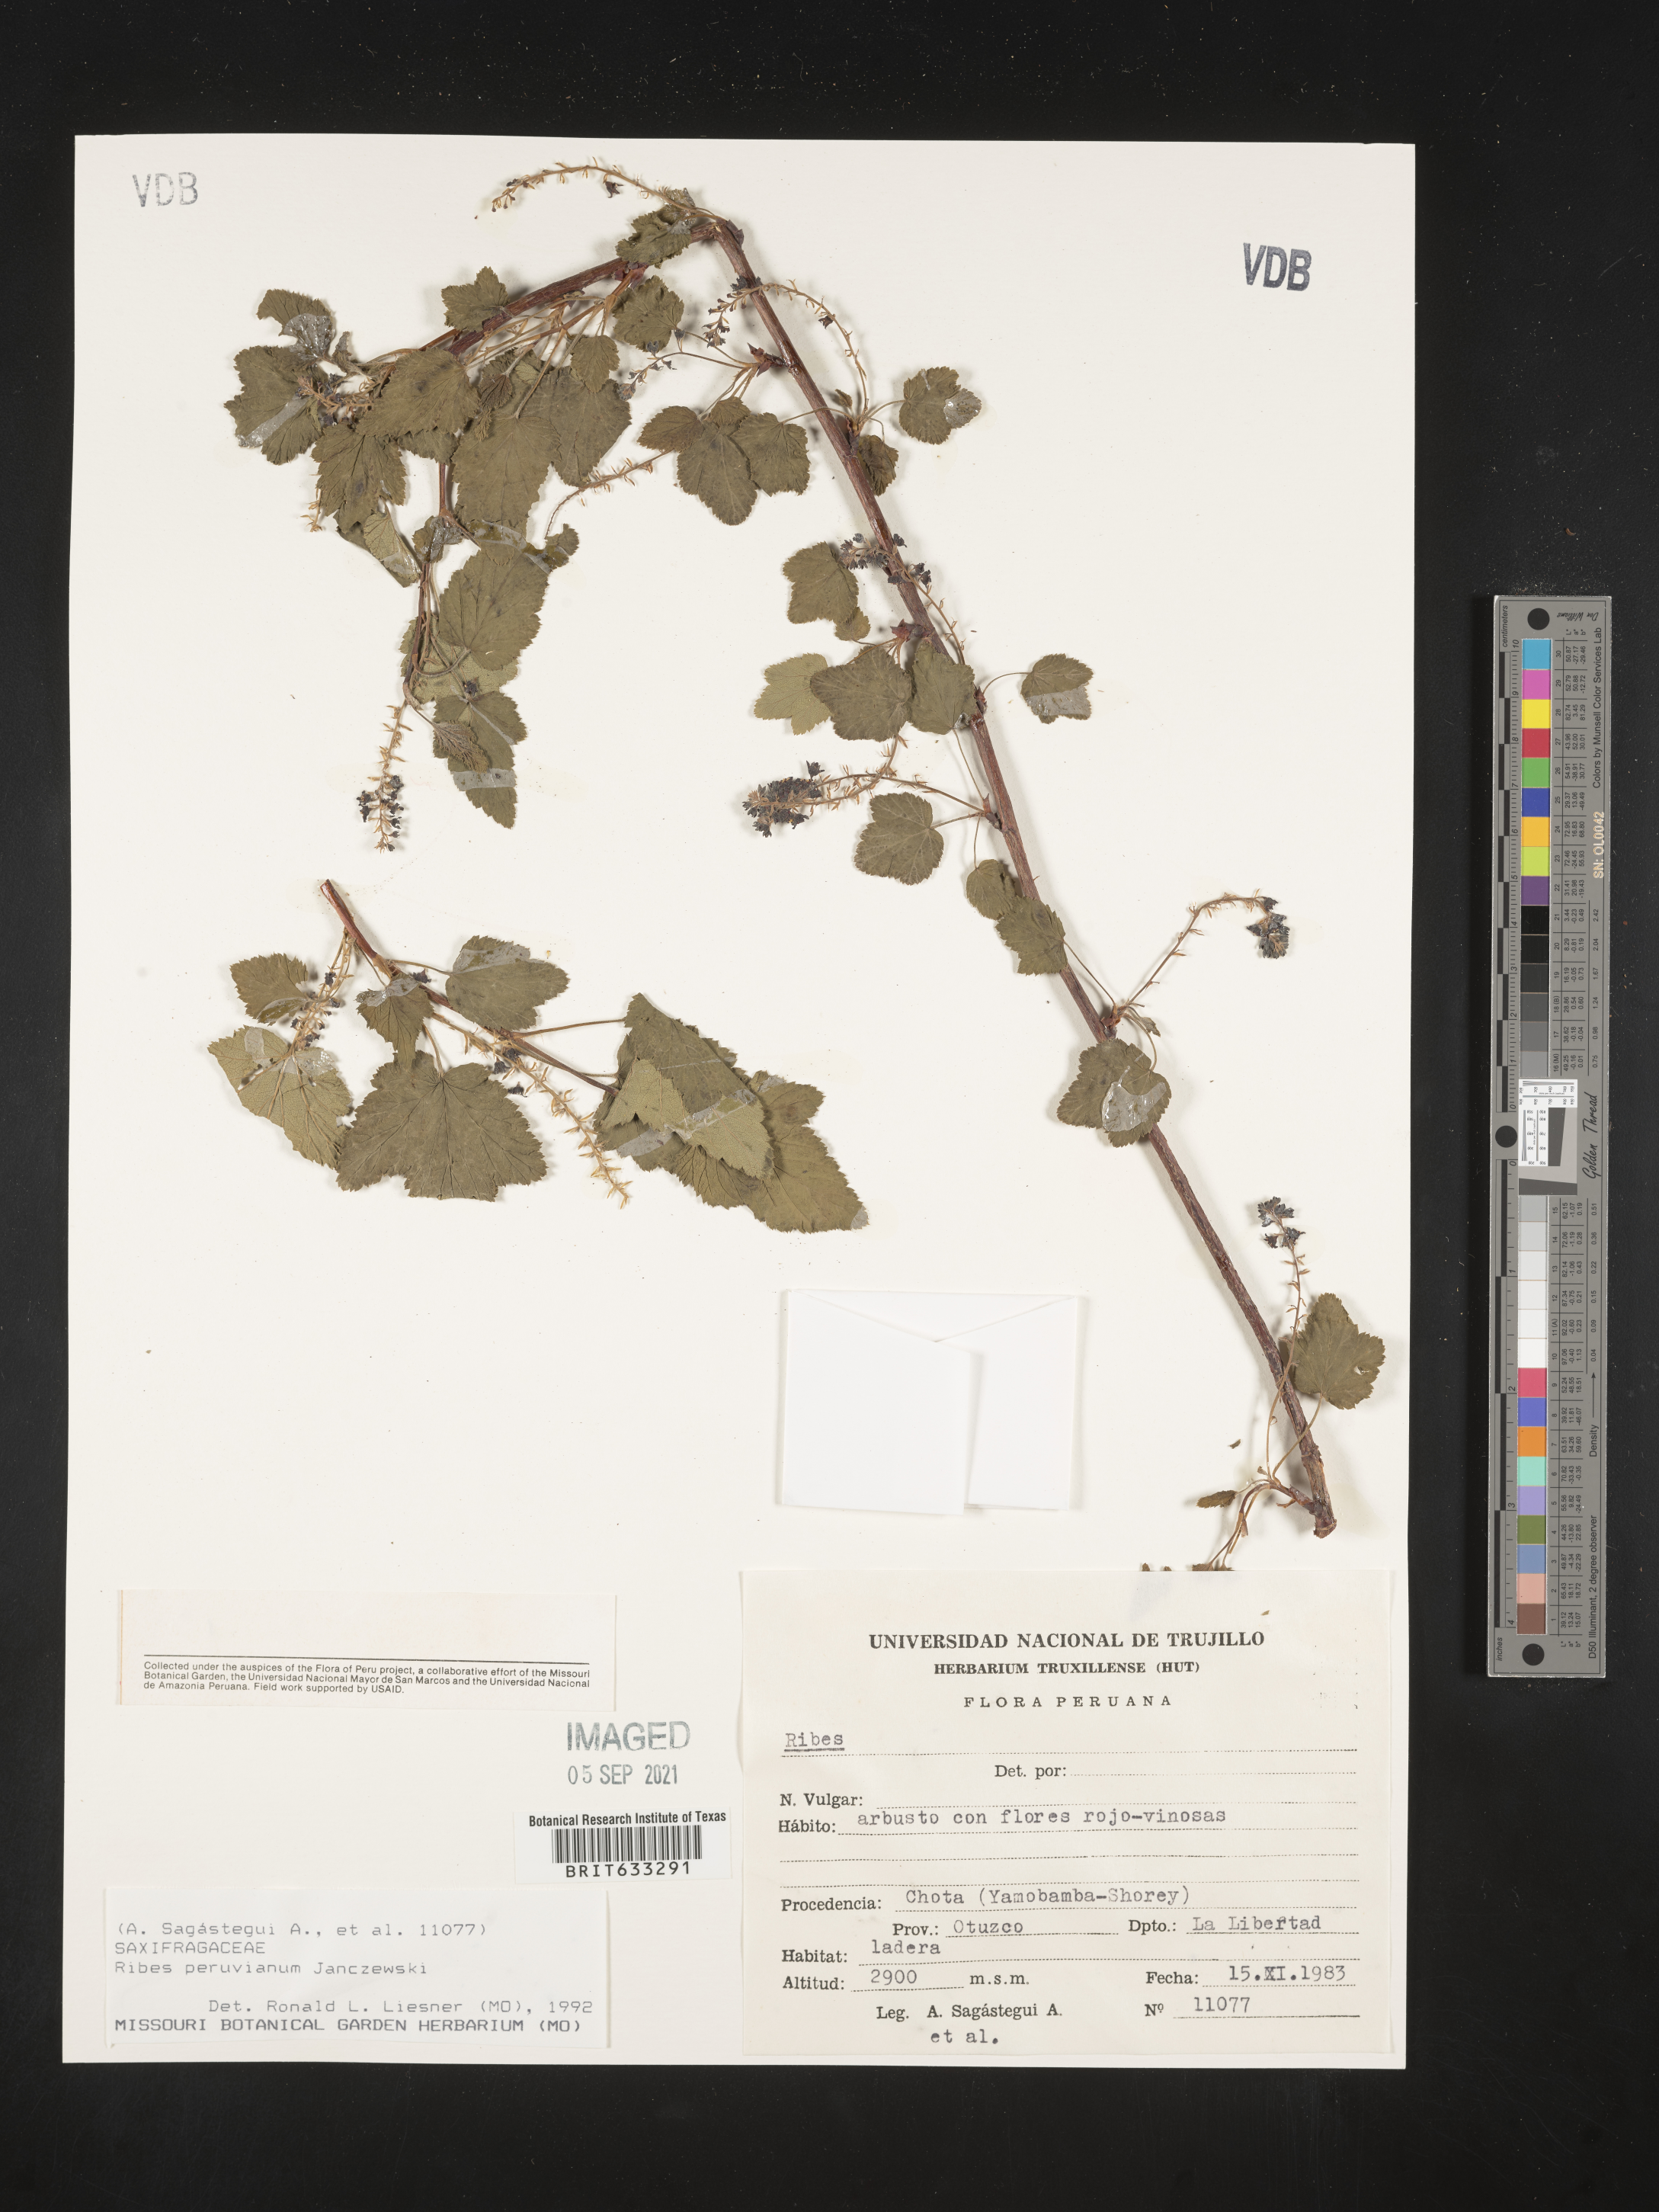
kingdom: Plantae
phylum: Tracheophyta
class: Magnoliopsida
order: Saxifragales
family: Grossulariaceae
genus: Ribes
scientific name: Ribes
